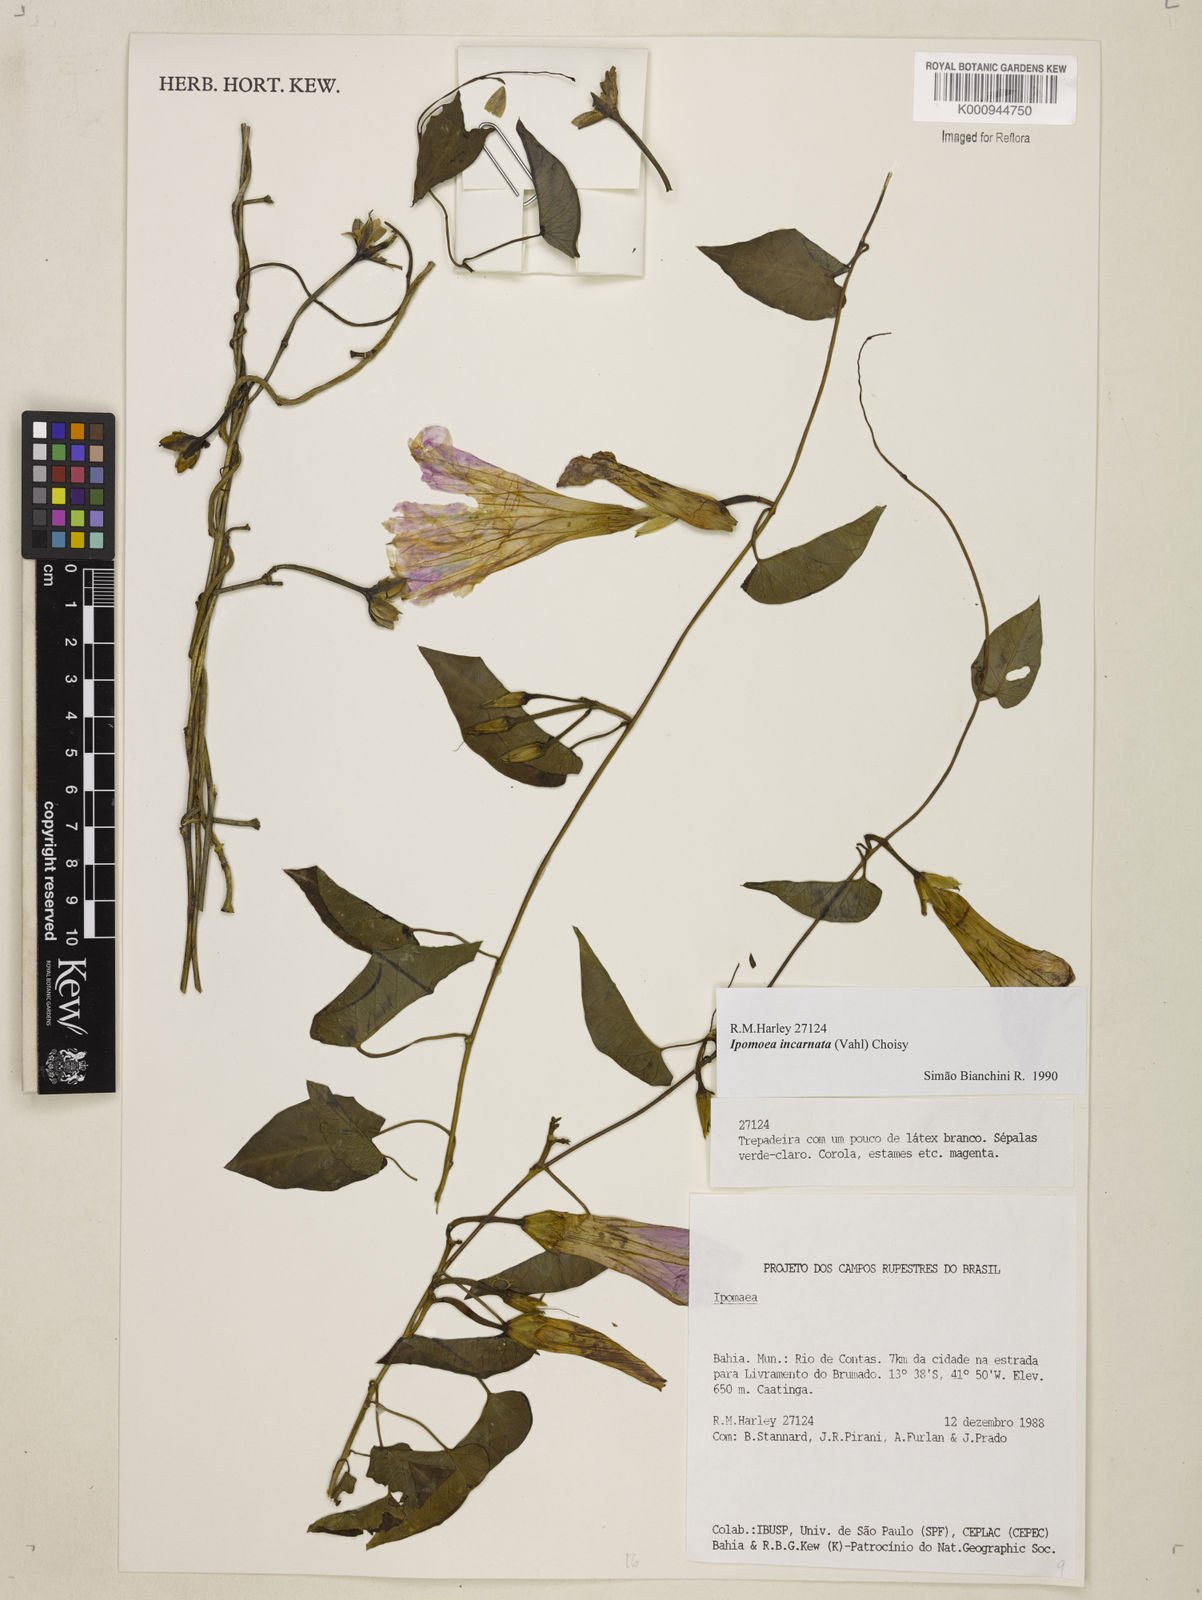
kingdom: Plantae
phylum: Tracheophyta
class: Magnoliopsida
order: Solanales
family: Convolvulaceae
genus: Ipomoea
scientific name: Ipomoea incarnata
